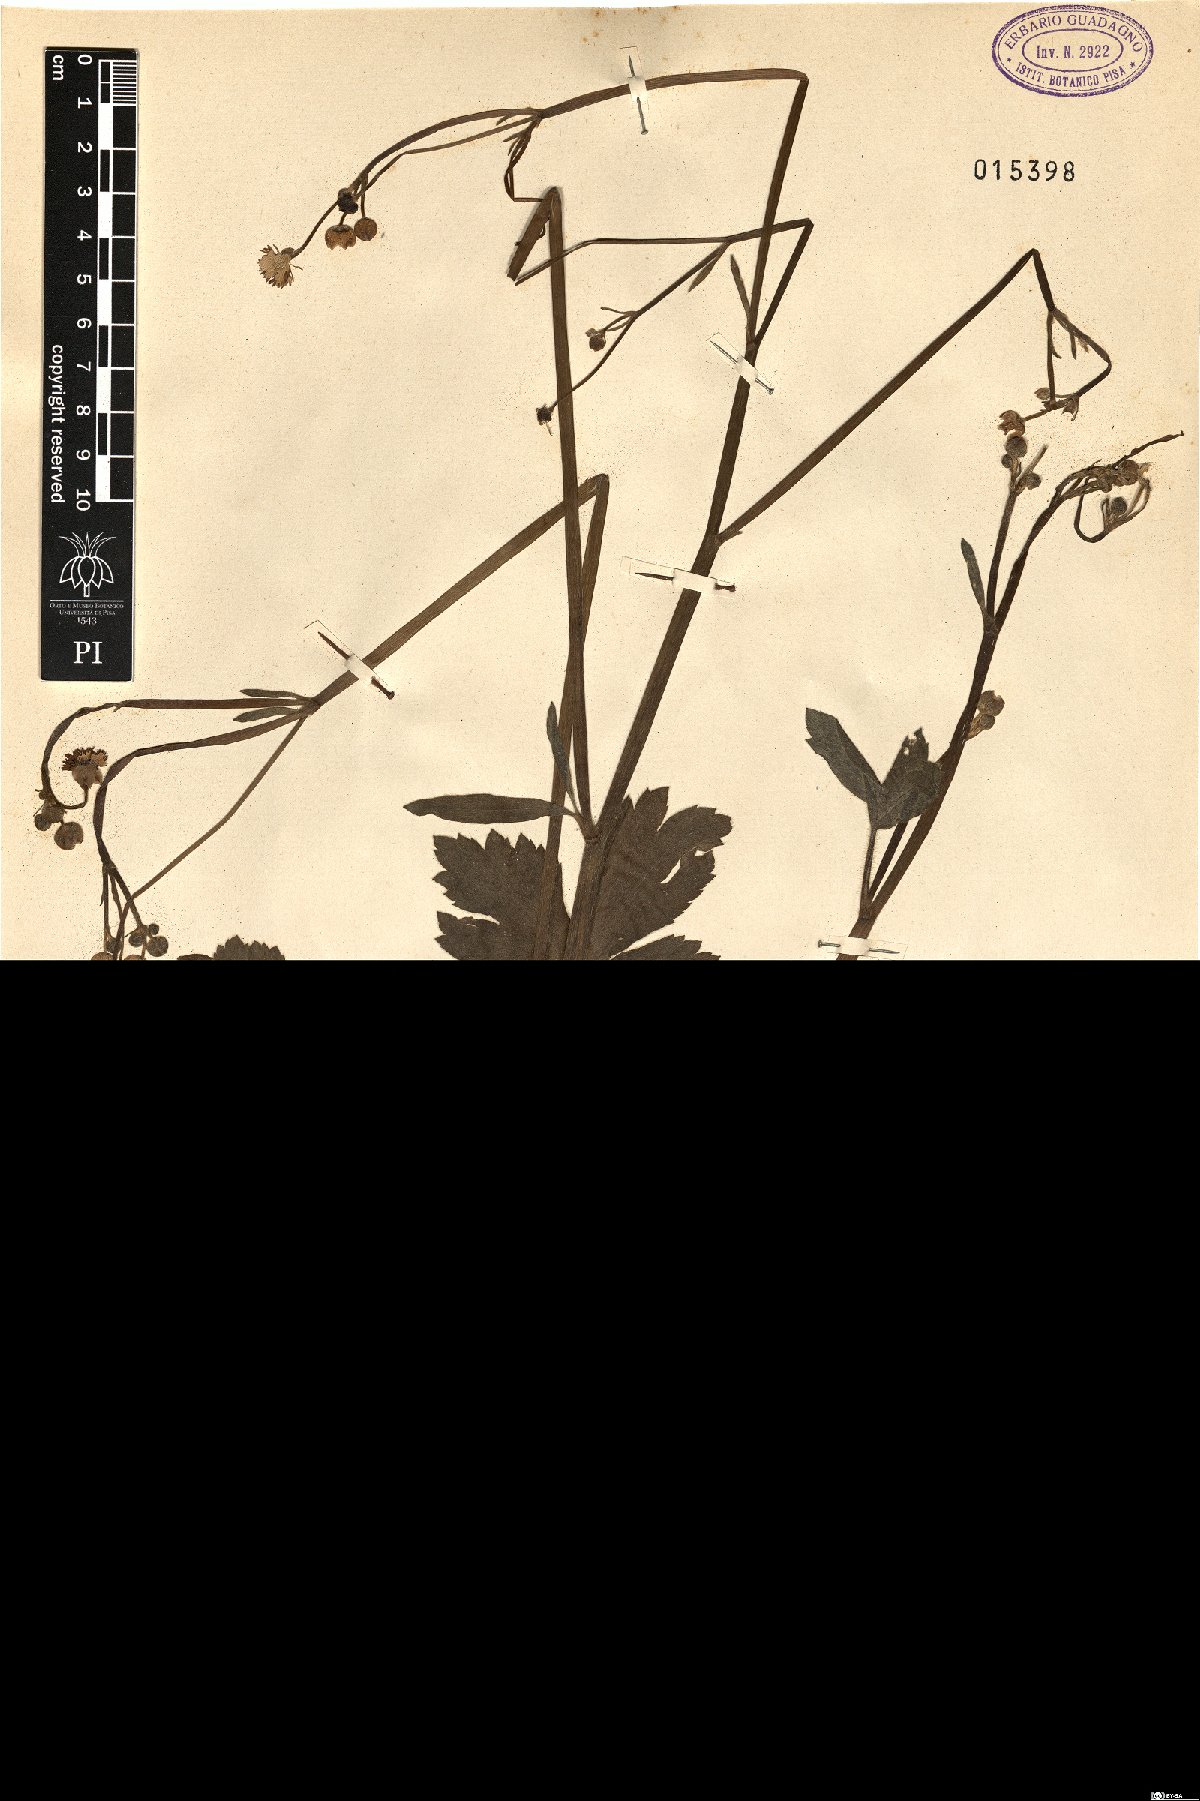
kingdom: Plantae
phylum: Tracheophyta
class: Magnoliopsida
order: Ranunculales
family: Ranunculaceae
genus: Ranunculus
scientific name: Ranunculus velutinus
